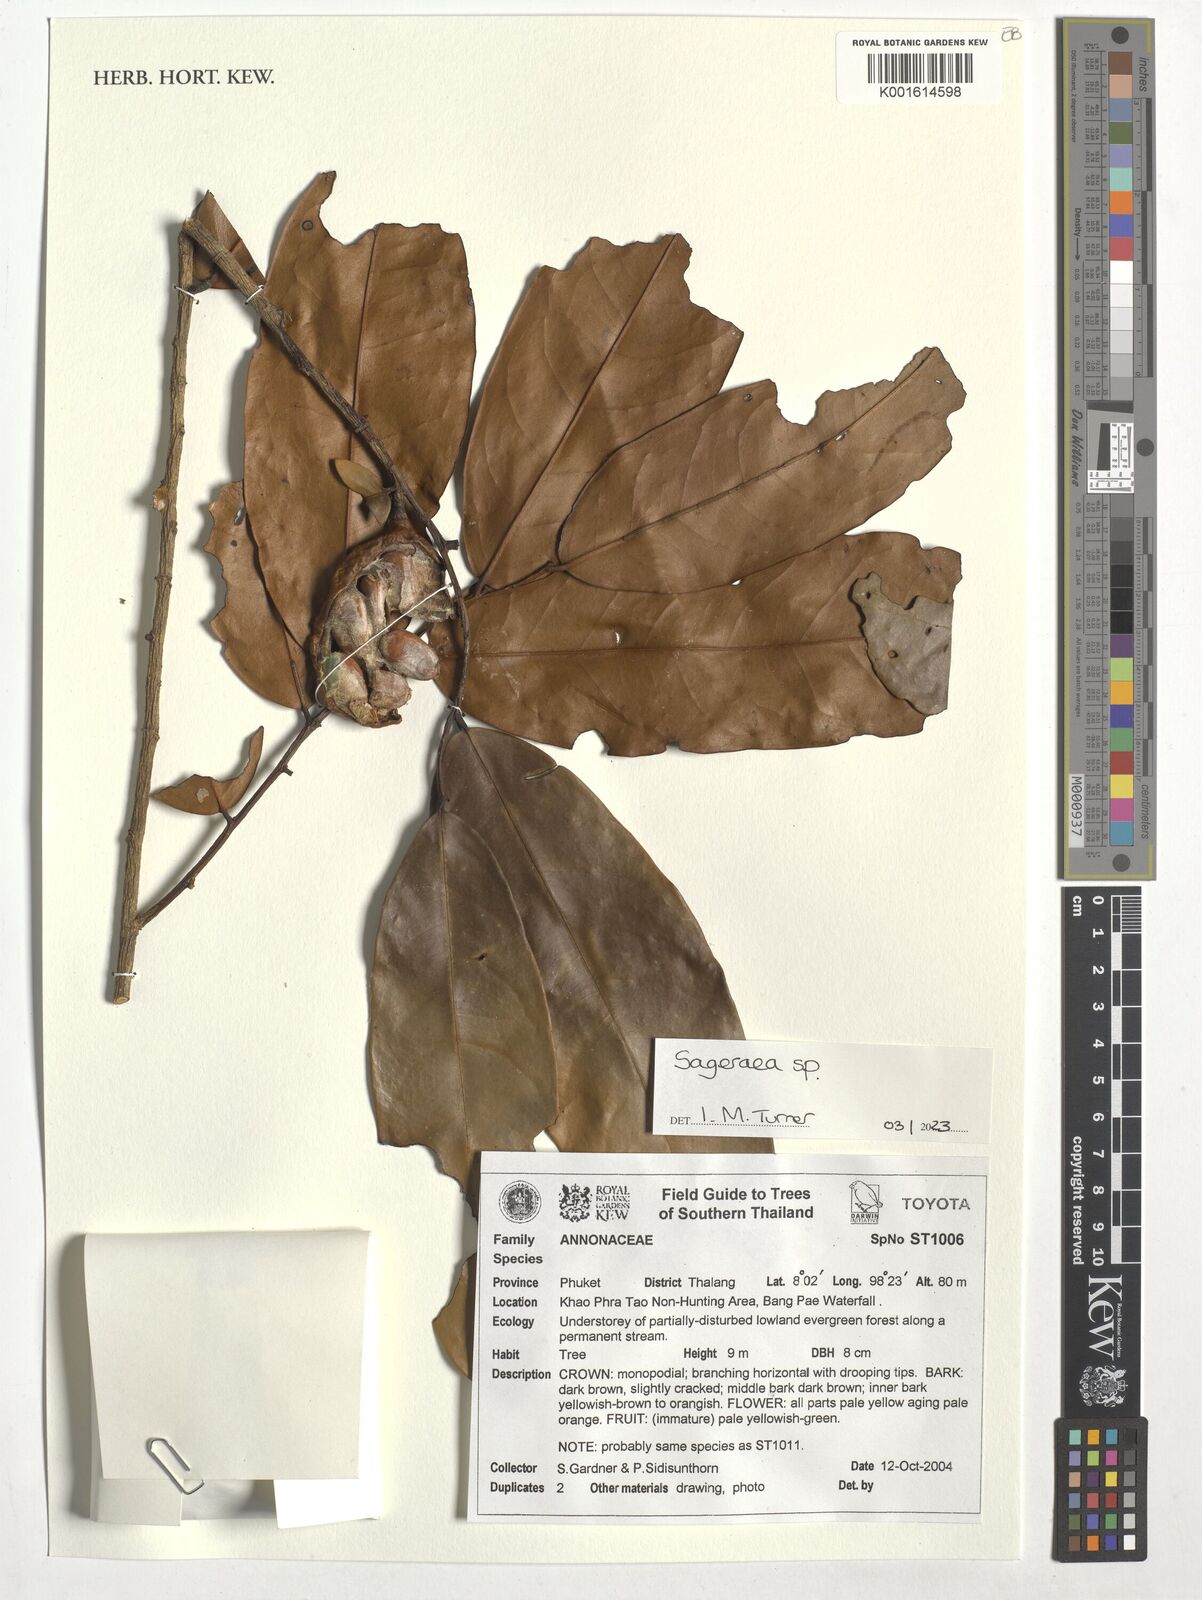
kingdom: Plantae
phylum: Tracheophyta
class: Magnoliopsida
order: Magnoliales
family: Annonaceae
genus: Sageraea
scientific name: Sageraea
